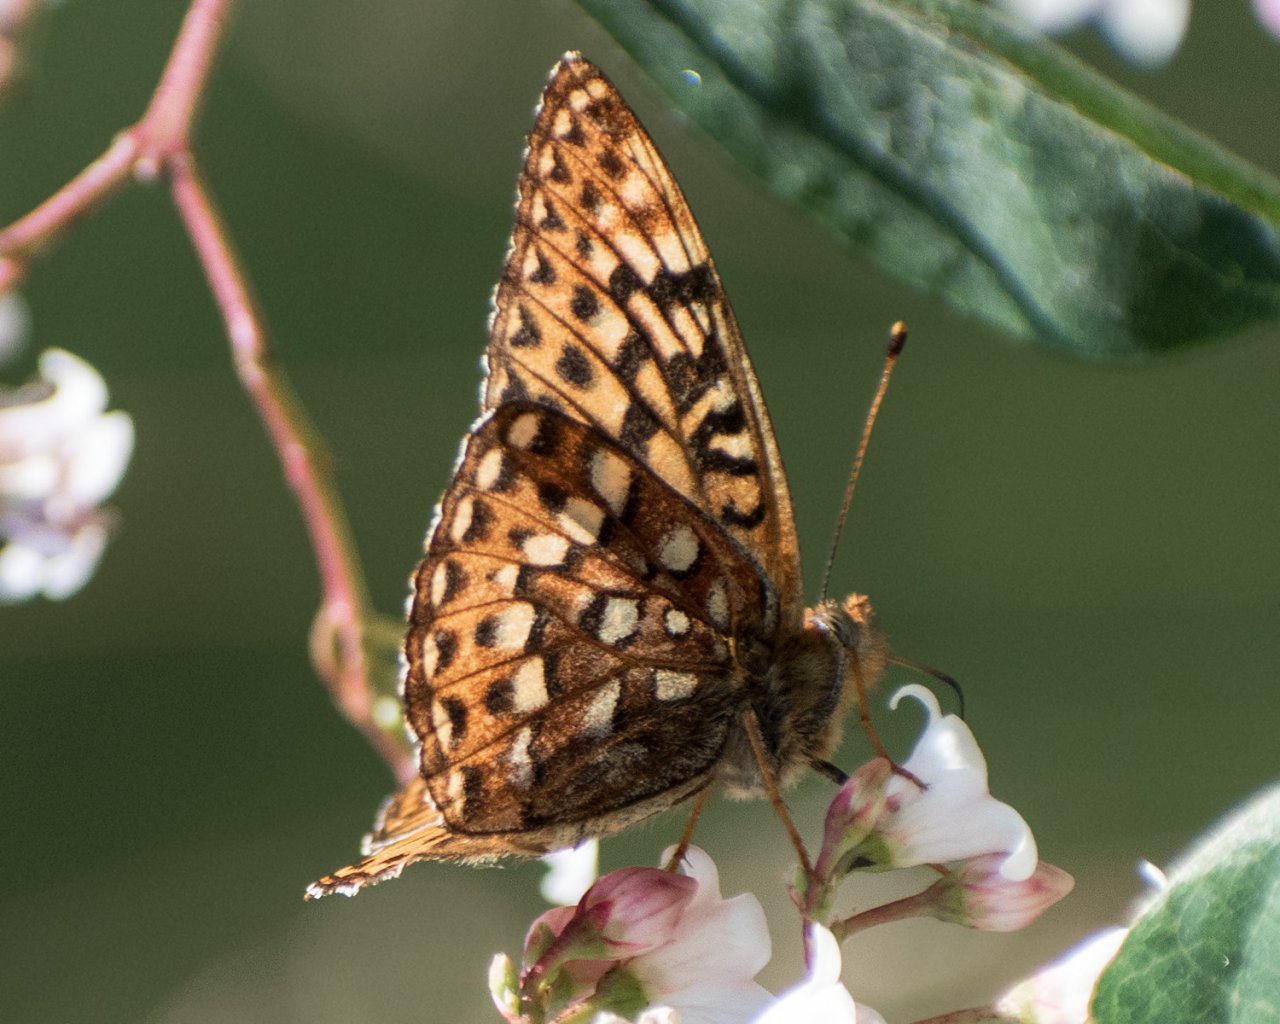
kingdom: Animalia
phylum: Arthropoda
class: Insecta
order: Lepidoptera
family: Nymphalidae
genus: Speyeria
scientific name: Speyeria hydaspe
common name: Hydaspe Fritillary
